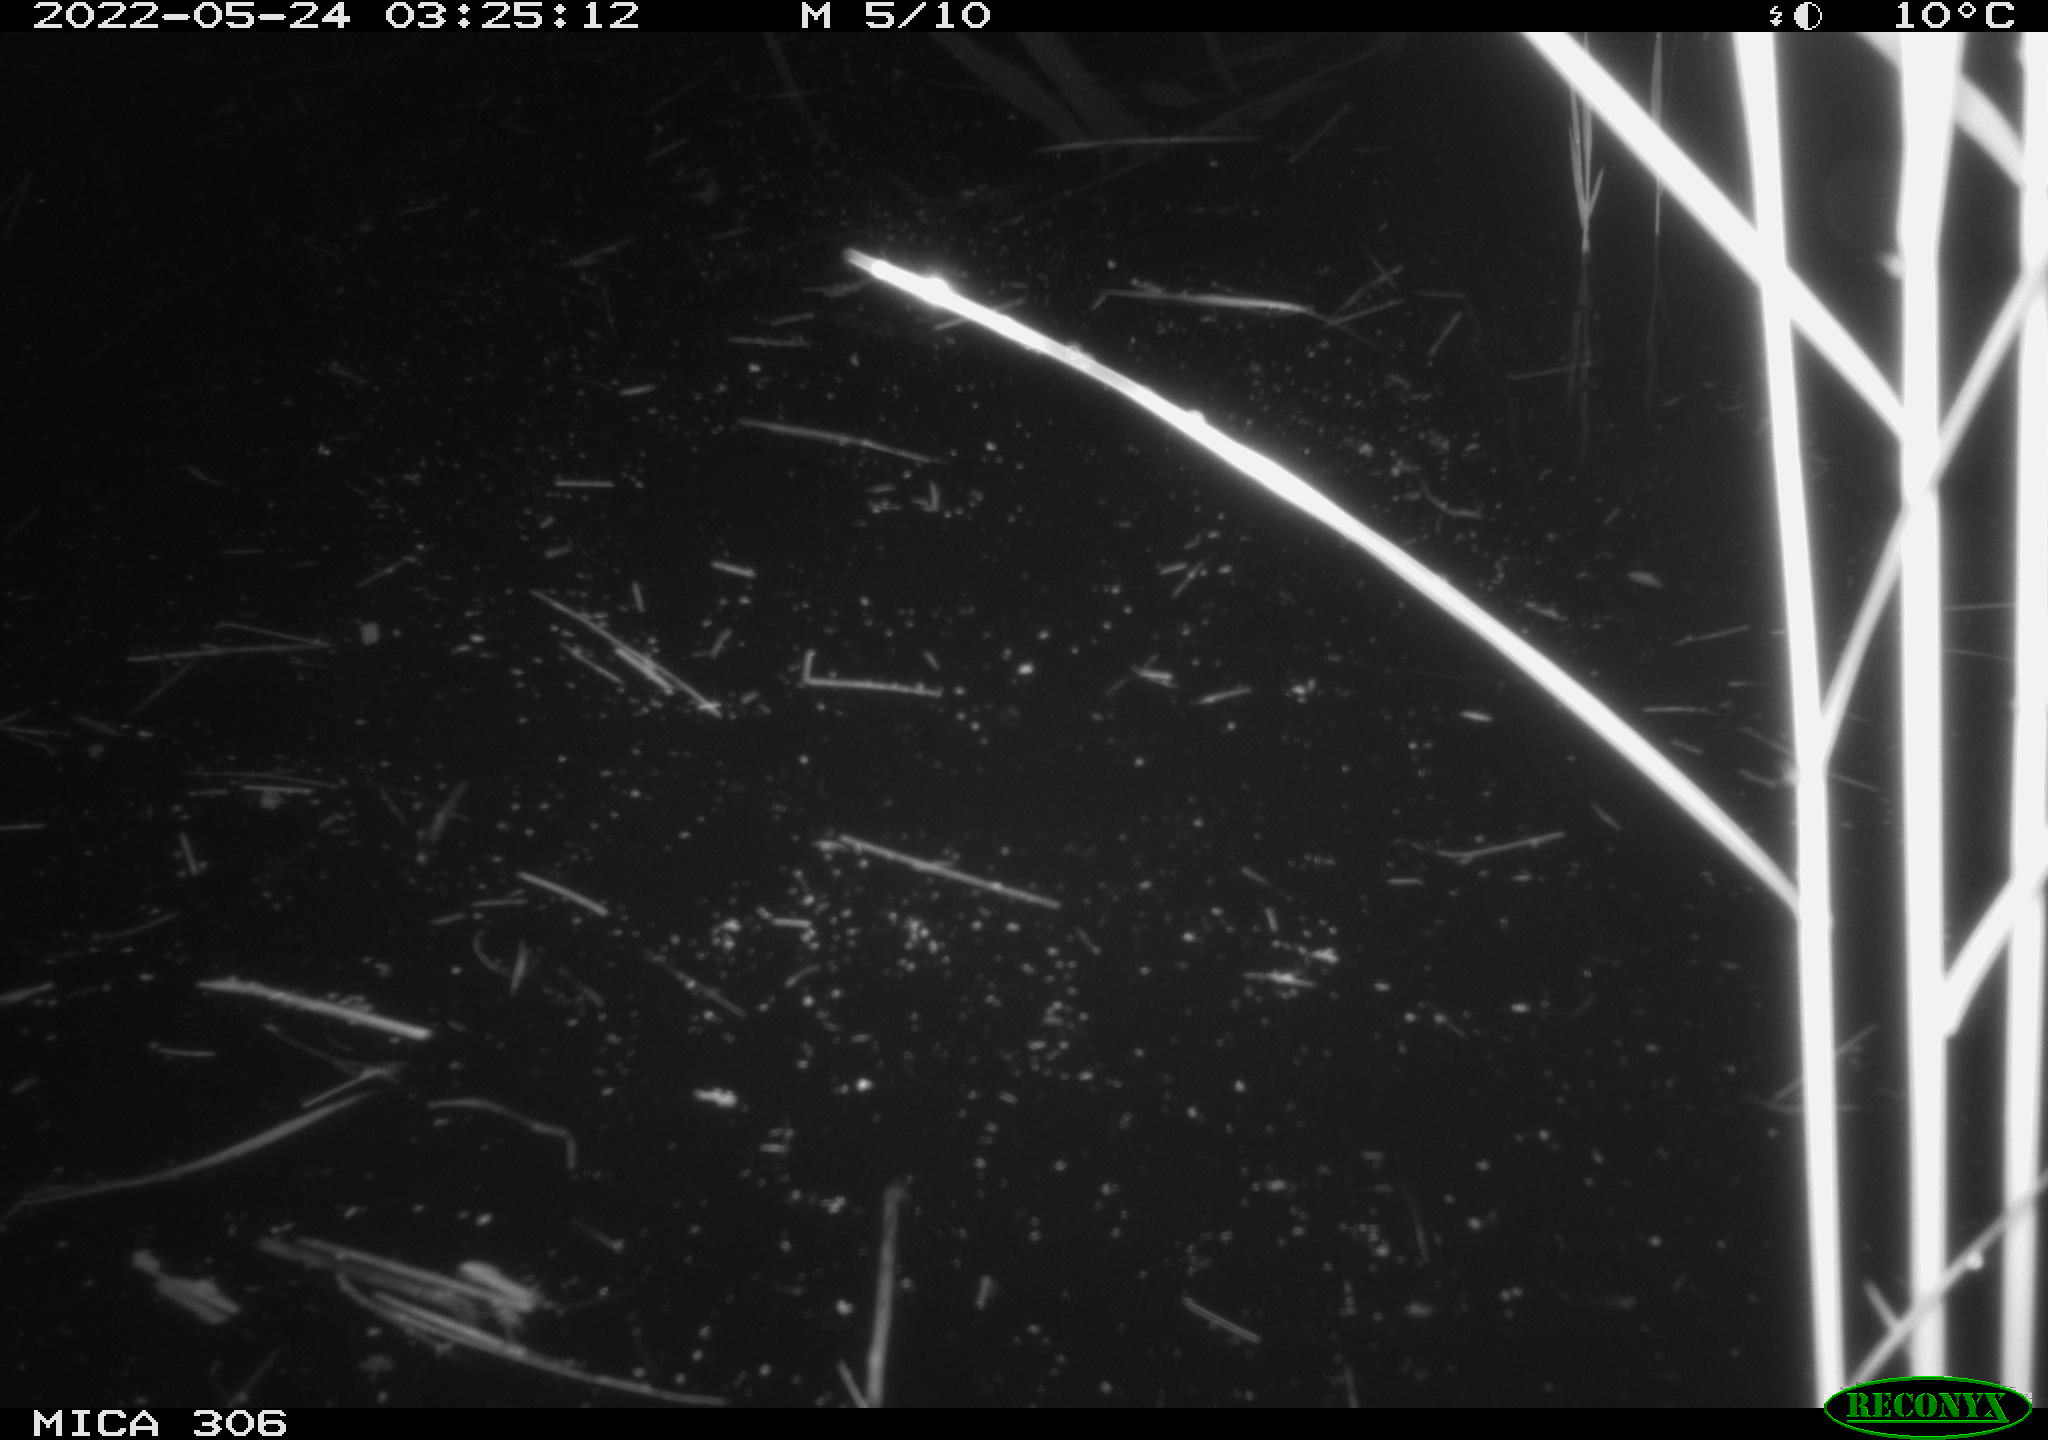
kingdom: Animalia
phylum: Chordata
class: Mammalia
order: Rodentia
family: Muridae
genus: Rattus
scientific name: Rattus norvegicus
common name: Brown rat
